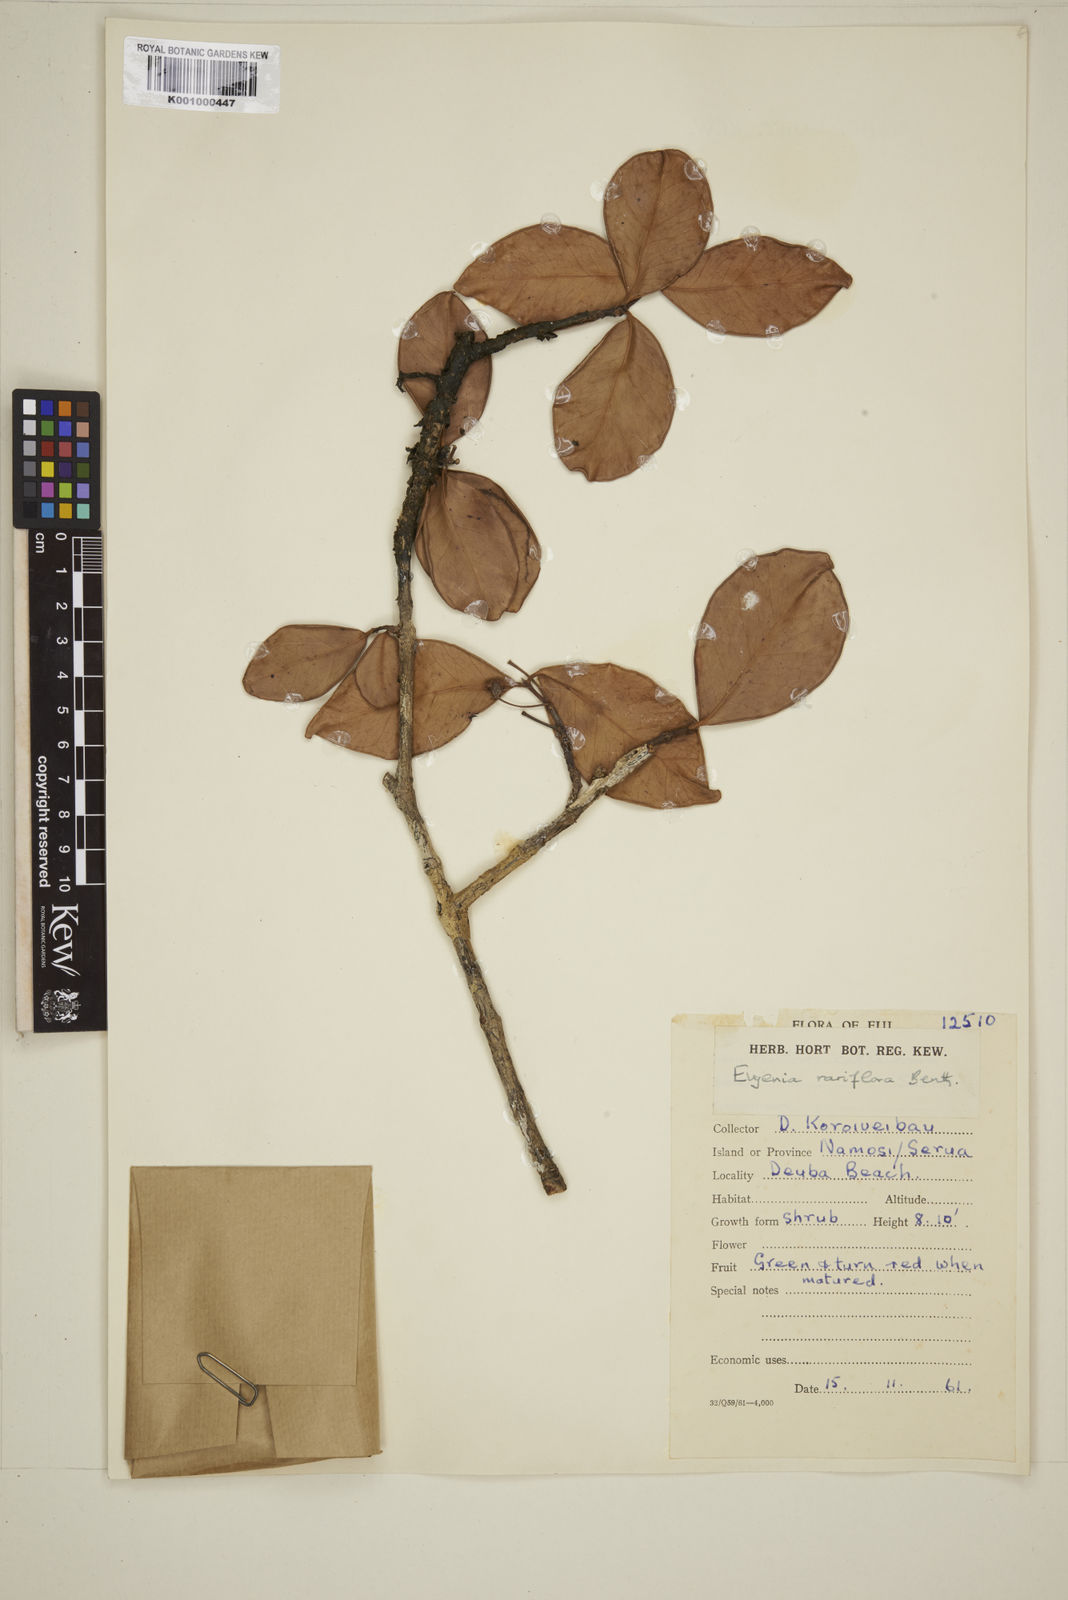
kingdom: Plantae
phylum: Tracheophyta
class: Magnoliopsida
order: Myrtales
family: Myrtaceae
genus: Eugenia
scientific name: Eugenia reinwardtiana
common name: Cedar bay-cherry
